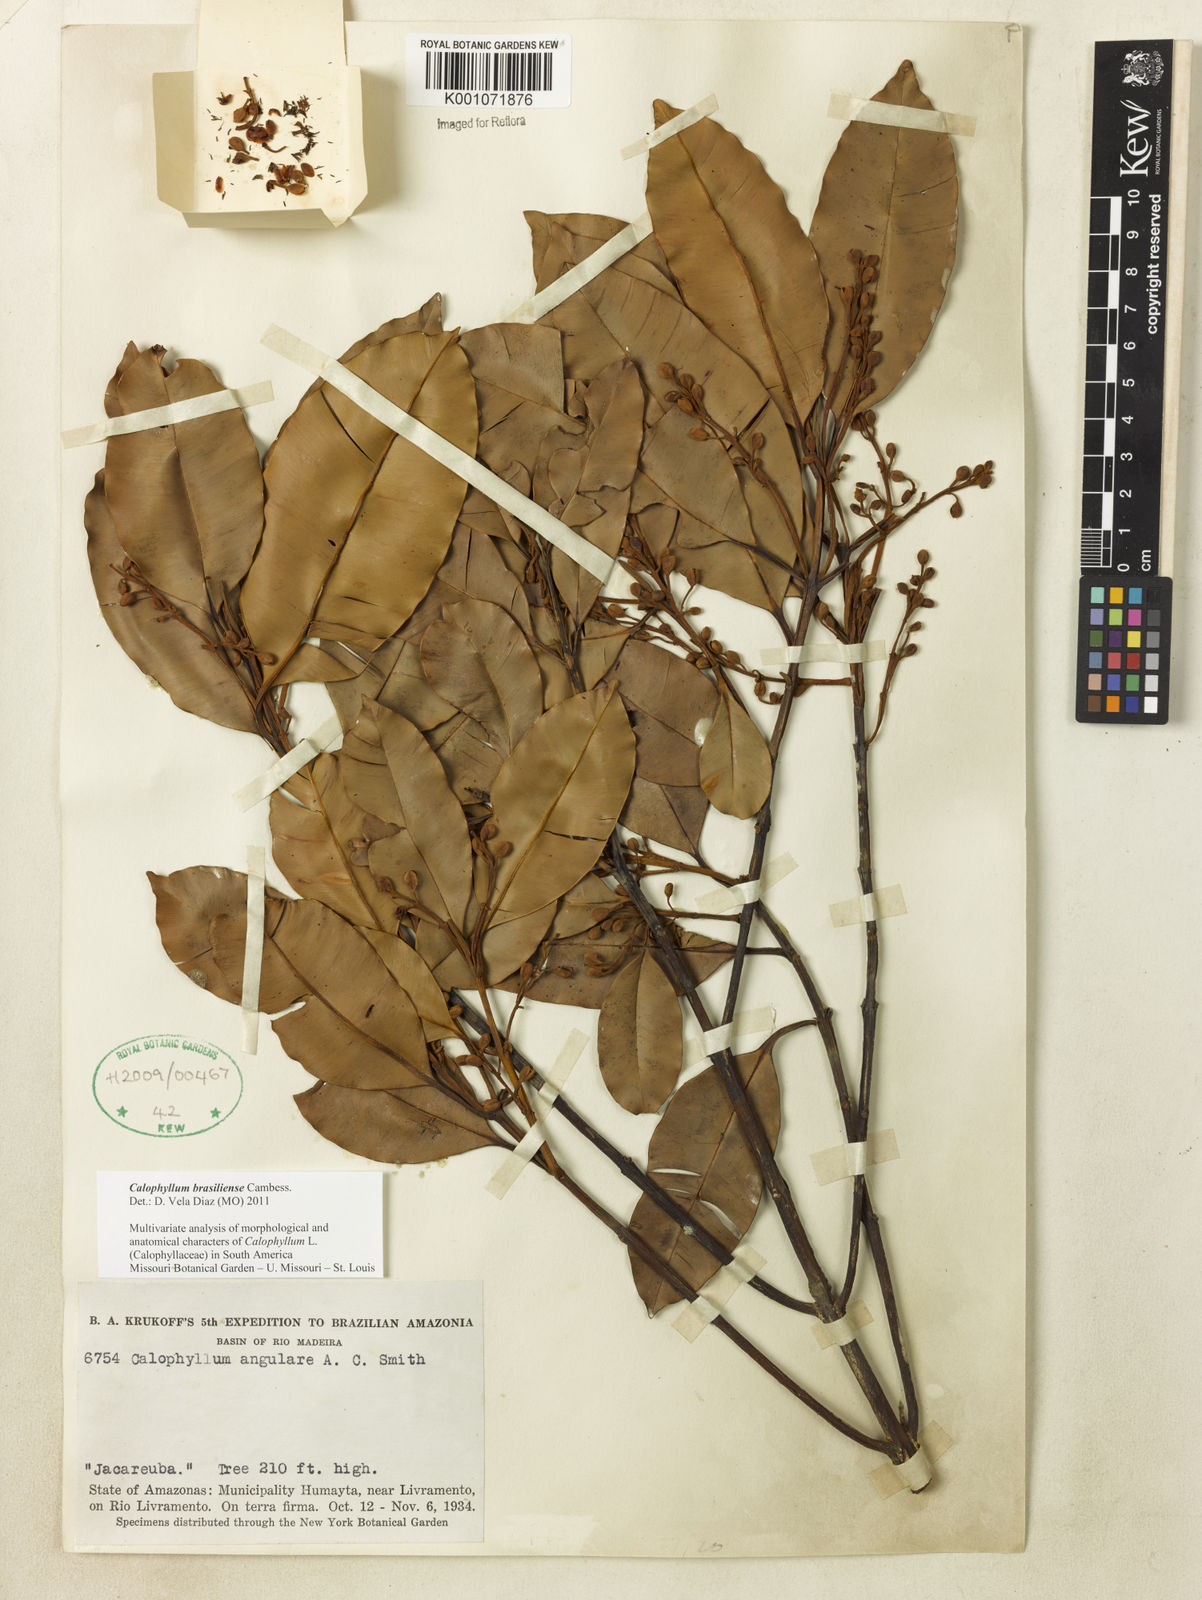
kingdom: Plantae
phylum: Tracheophyta
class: Magnoliopsida
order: Malpighiales
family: Calophyllaceae
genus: Calophyllum
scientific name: Calophyllum brasiliense
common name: Santa maria
